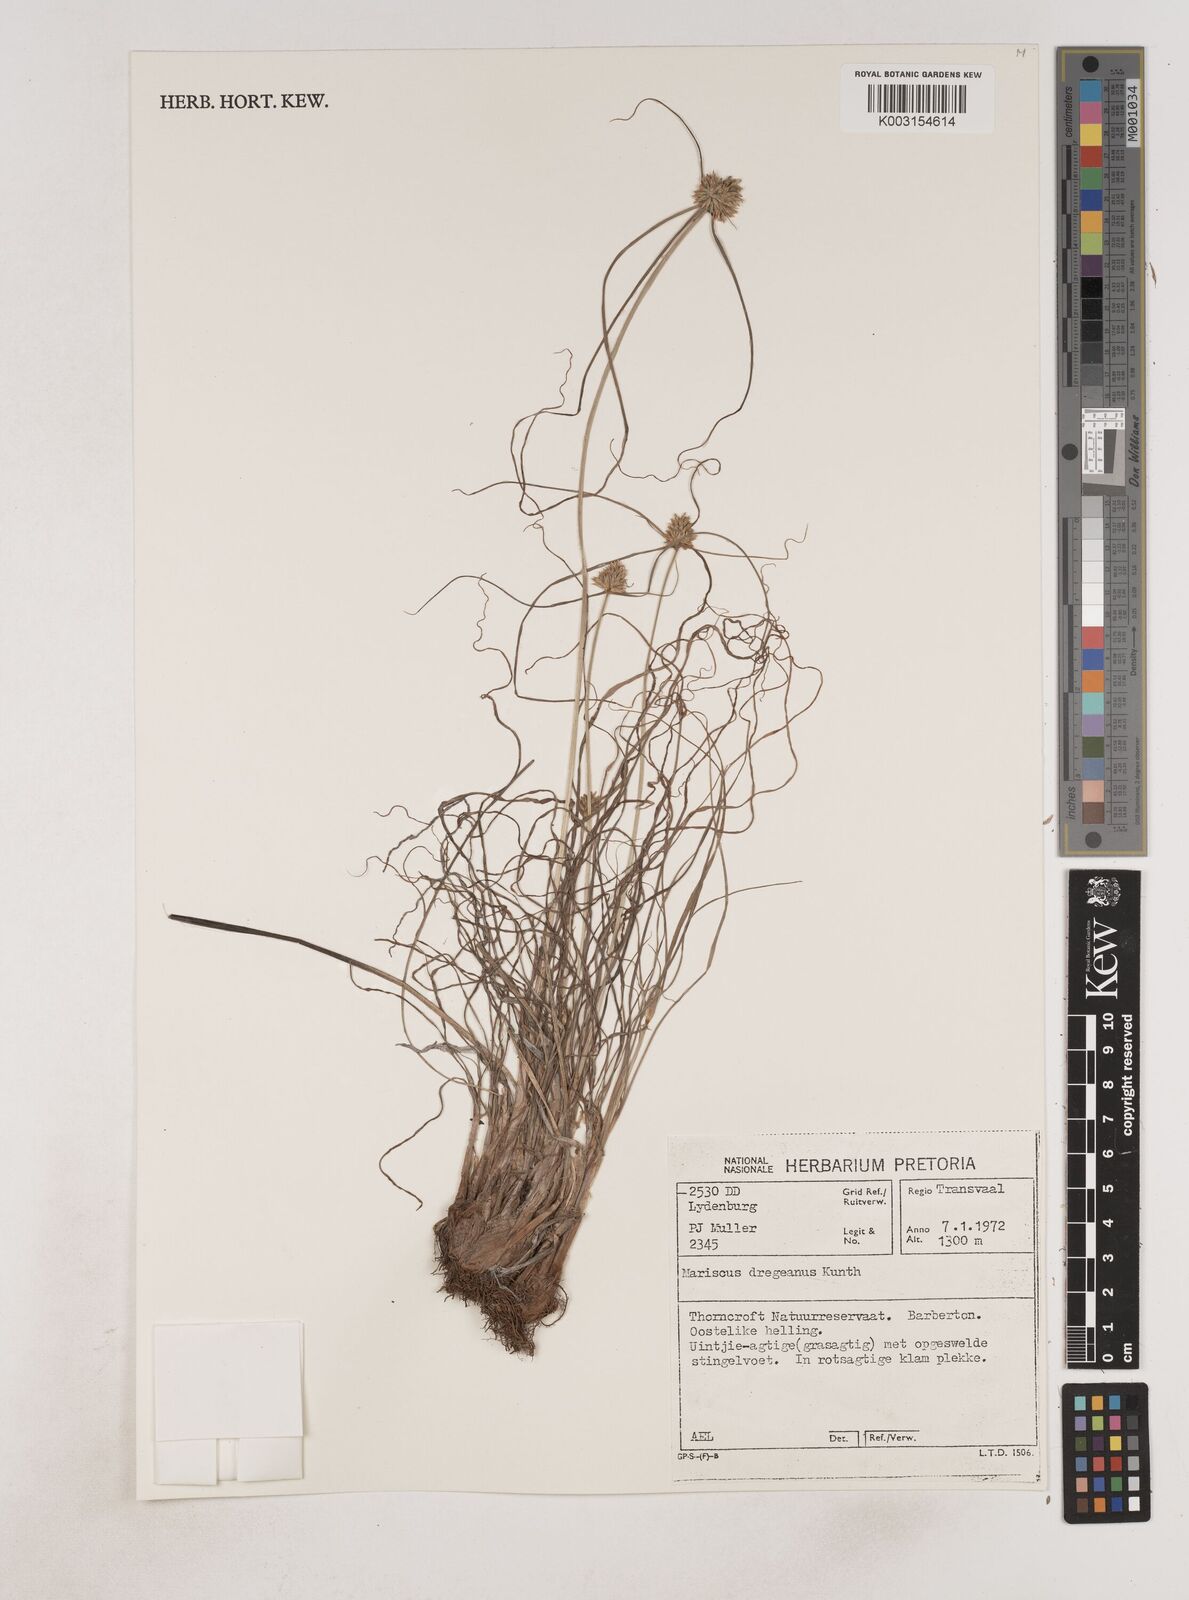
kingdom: Plantae
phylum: Tracheophyta
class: Liliopsida
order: Poales
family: Cyperaceae
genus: Cyperus
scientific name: Cyperus dubius
